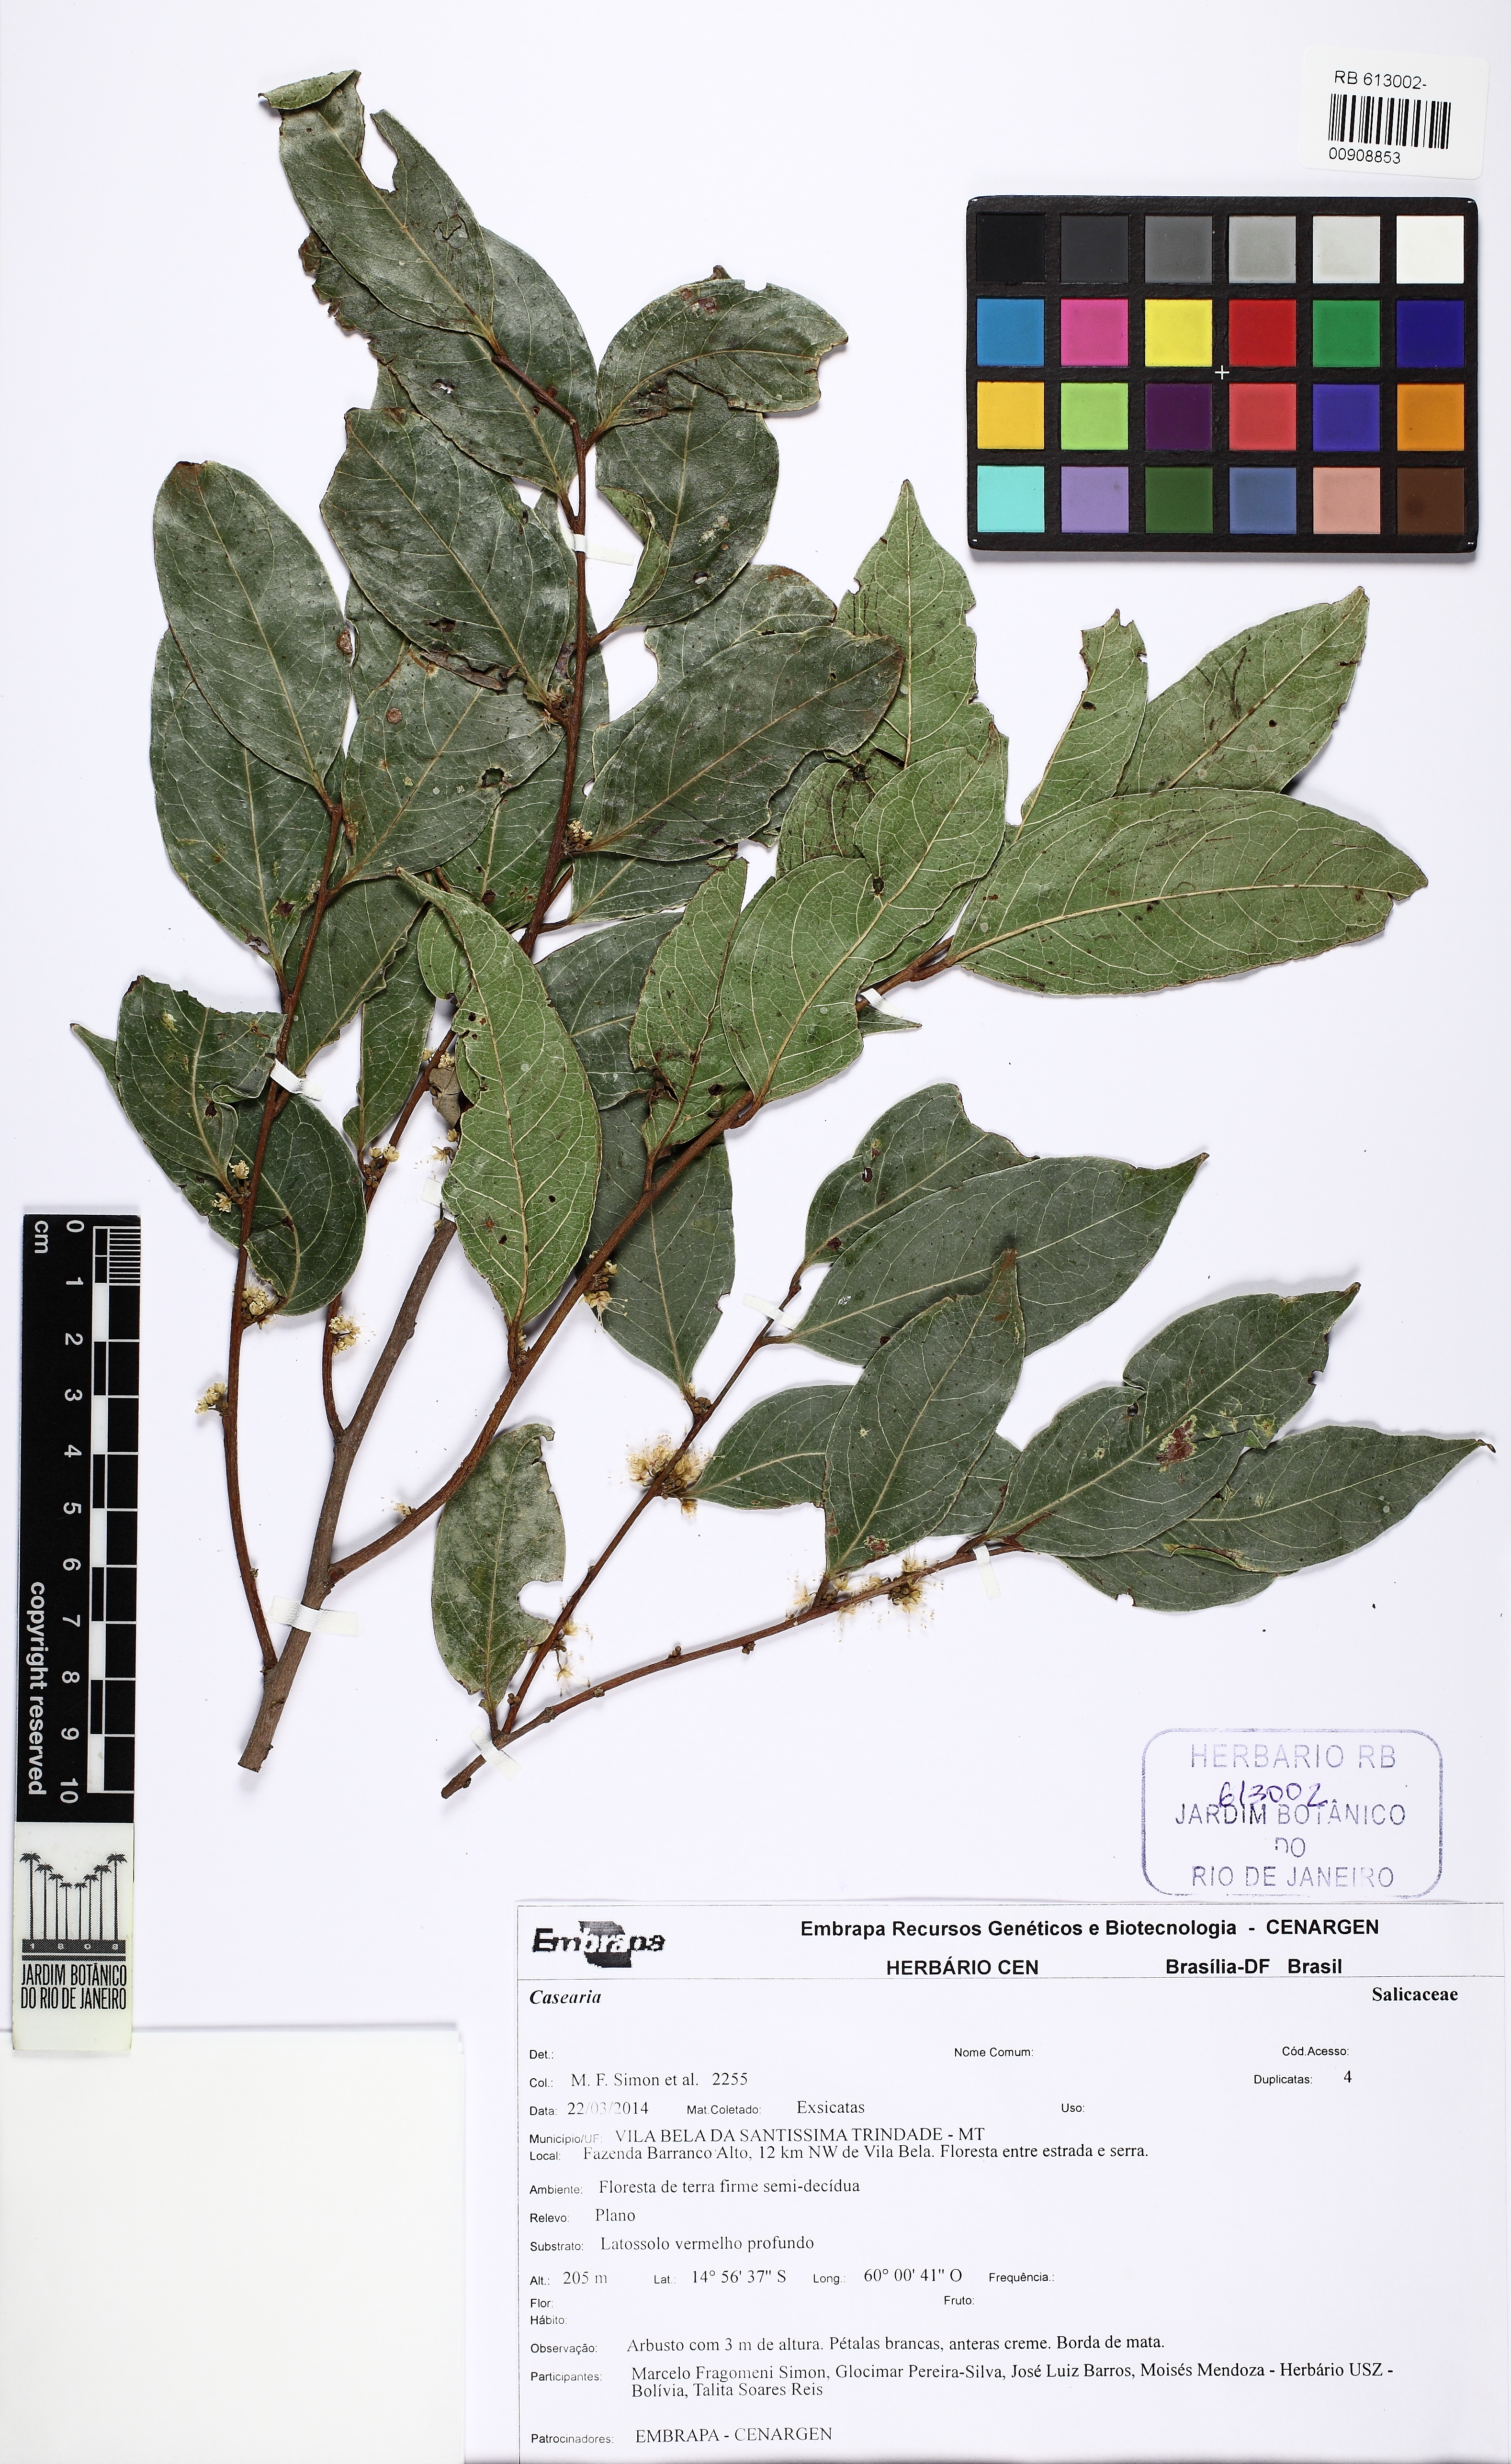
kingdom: Plantae
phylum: Tracheophyta
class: Magnoliopsida
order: Malpighiales
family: Salicaceae
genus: Casearia
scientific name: Casearia gossypiosperma
